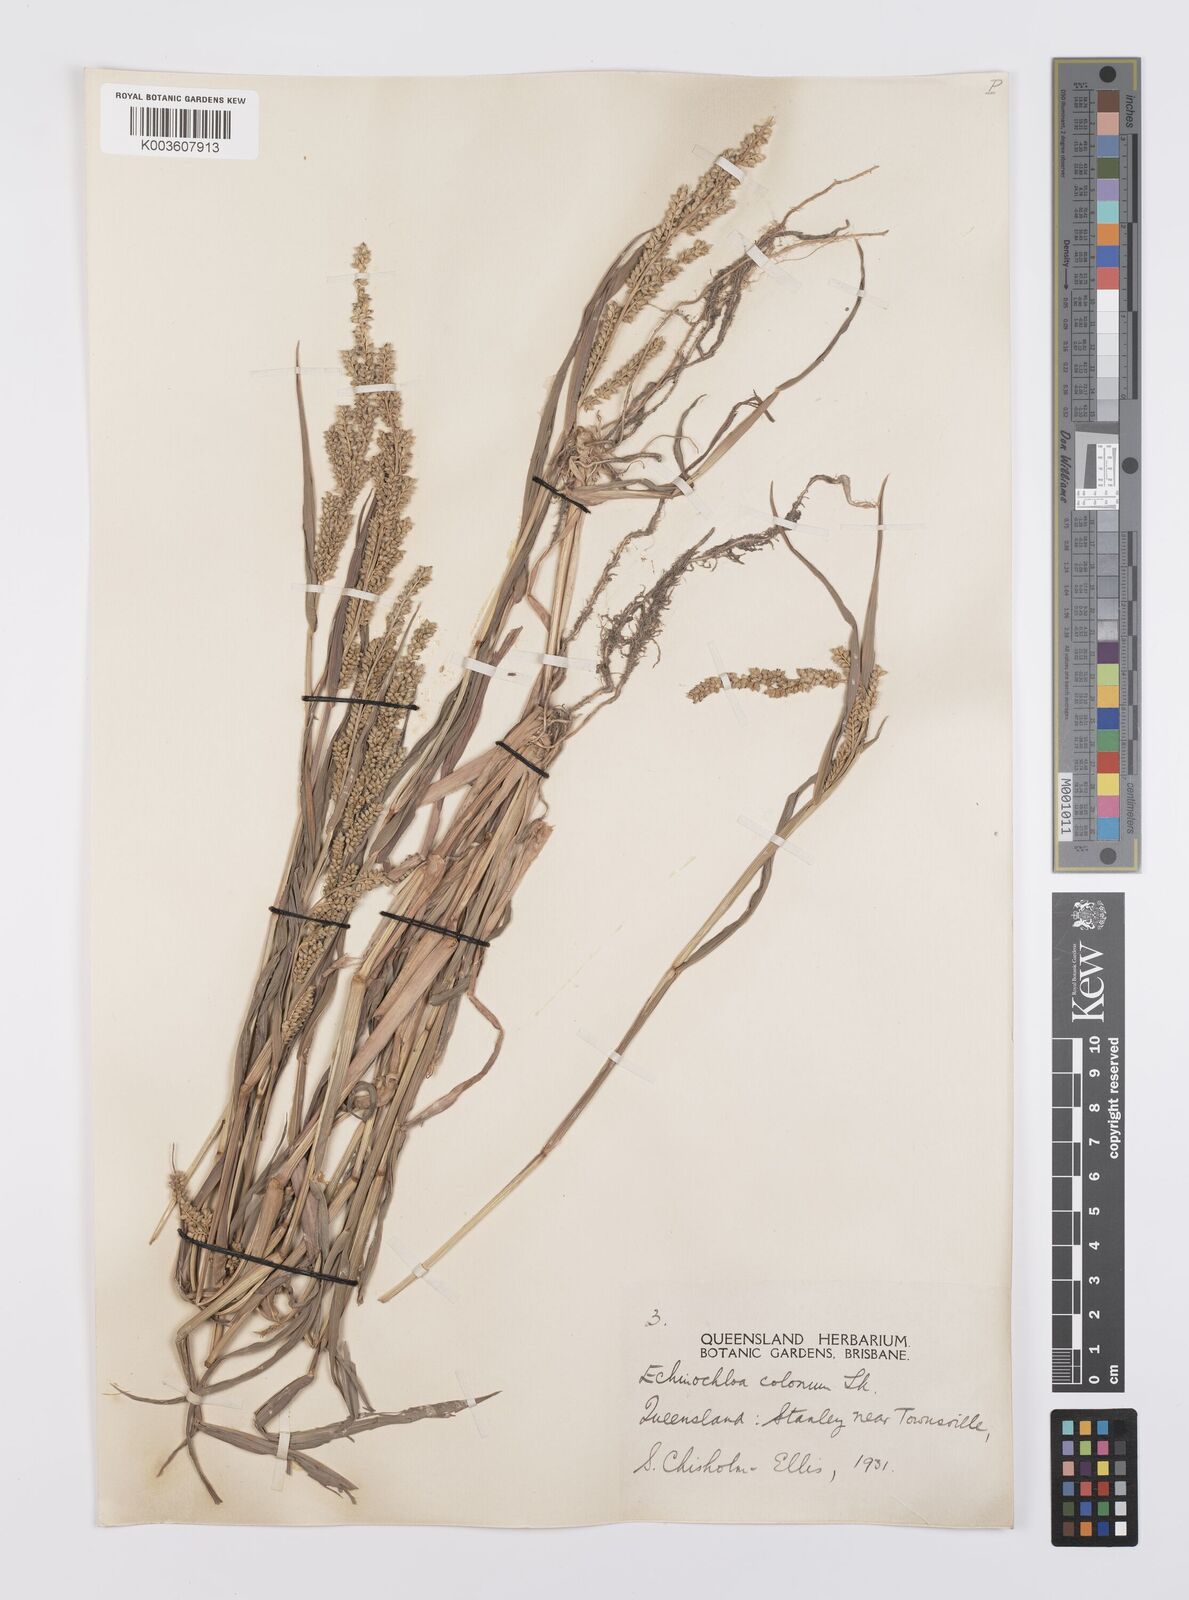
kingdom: Plantae
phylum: Tracheophyta
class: Liliopsida
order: Poales
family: Poaceae
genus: Echinochloa
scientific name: Echinochloa colonum
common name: Jungle rice
